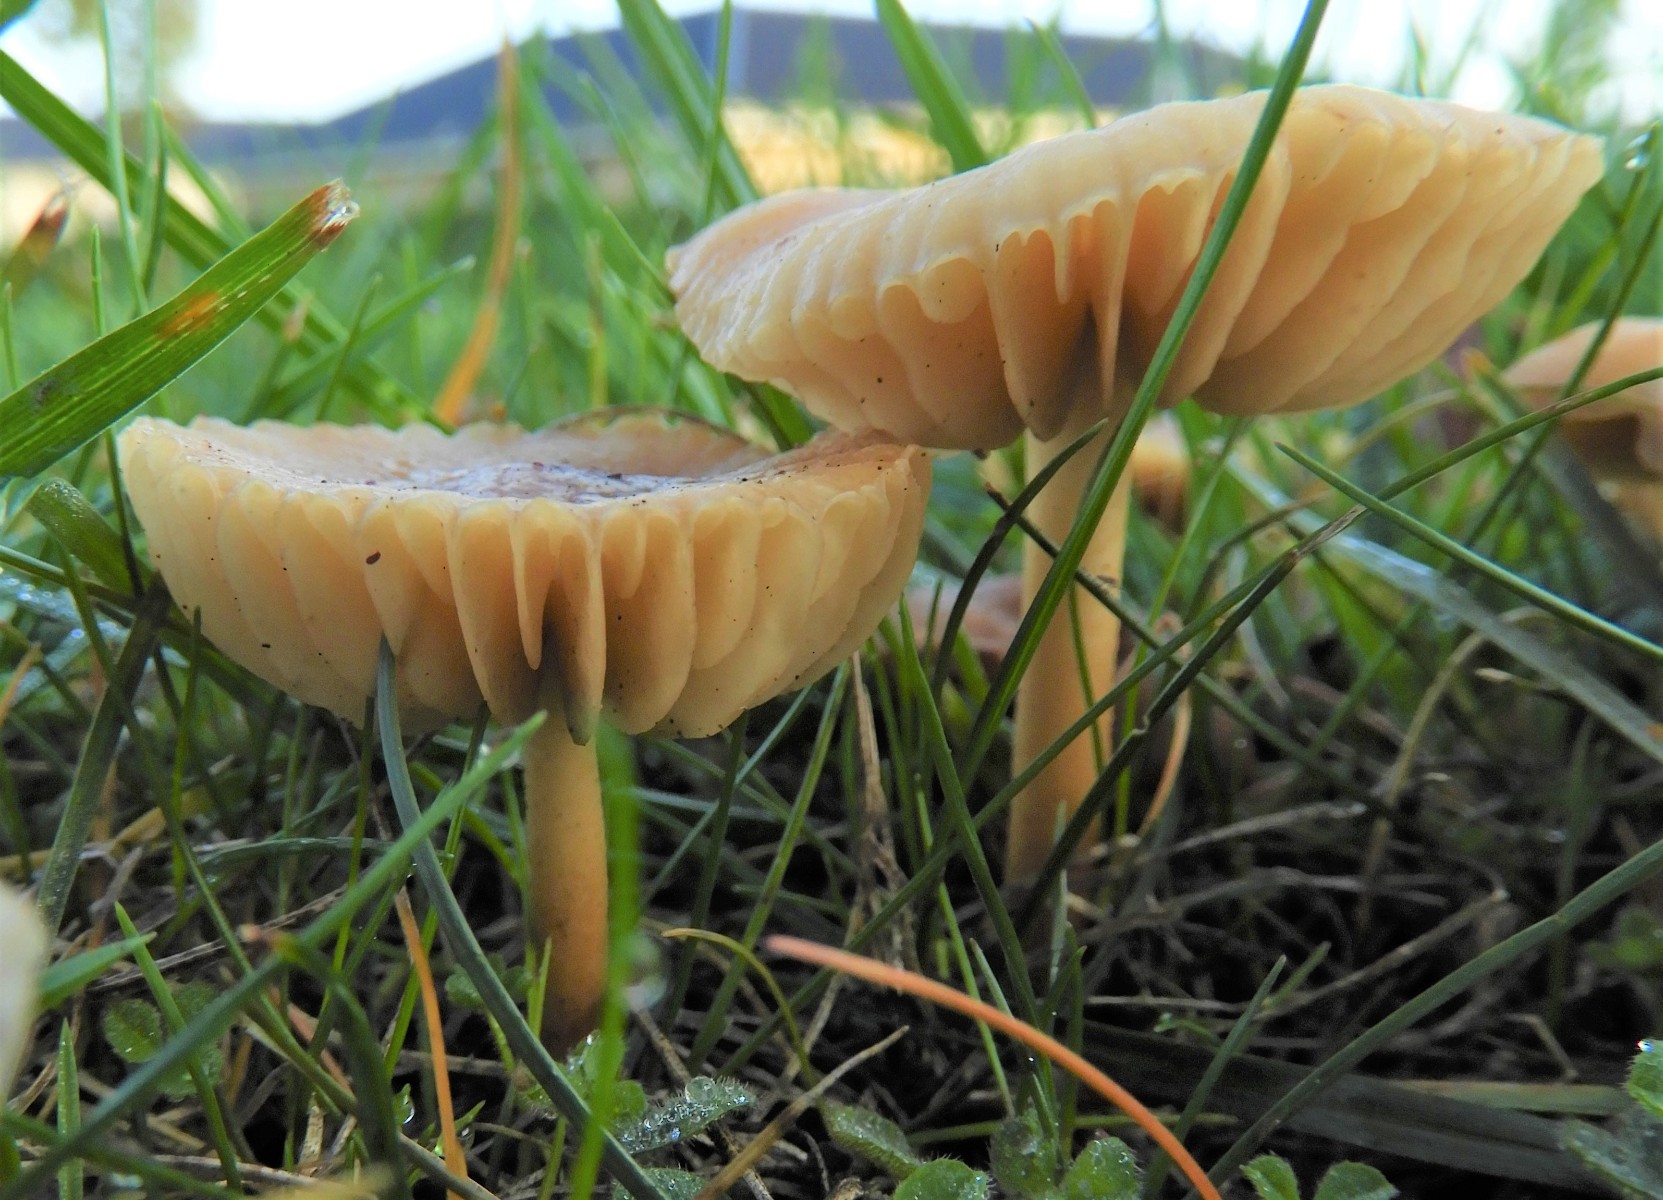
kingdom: Fungi
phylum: Basidiomycota
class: Agaricomycetes
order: Agaricales
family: Marasmiaceae
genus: Marasmius
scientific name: Marasmius oreades
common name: elledans-bruskhat
